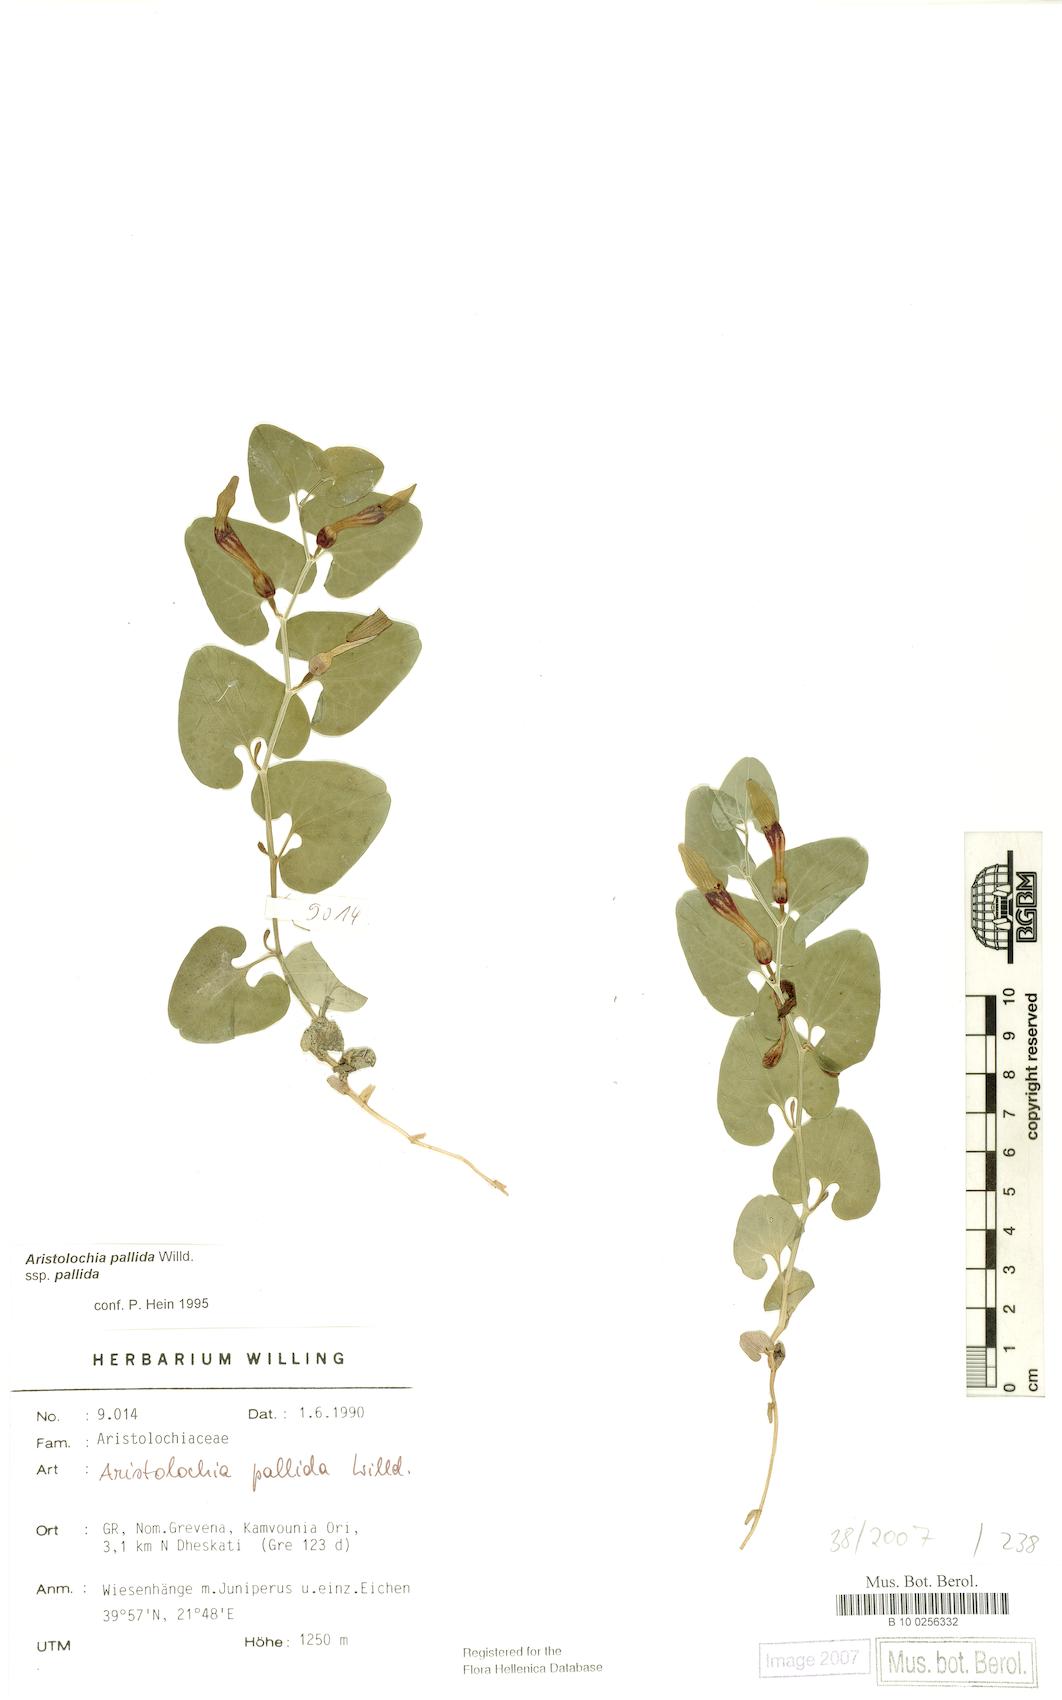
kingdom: Plantae
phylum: Tracheophyta
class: Magnoliopsida
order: Piperales
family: Aristolochiaceae
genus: Aristolochia
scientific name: Aristolochia pallida
